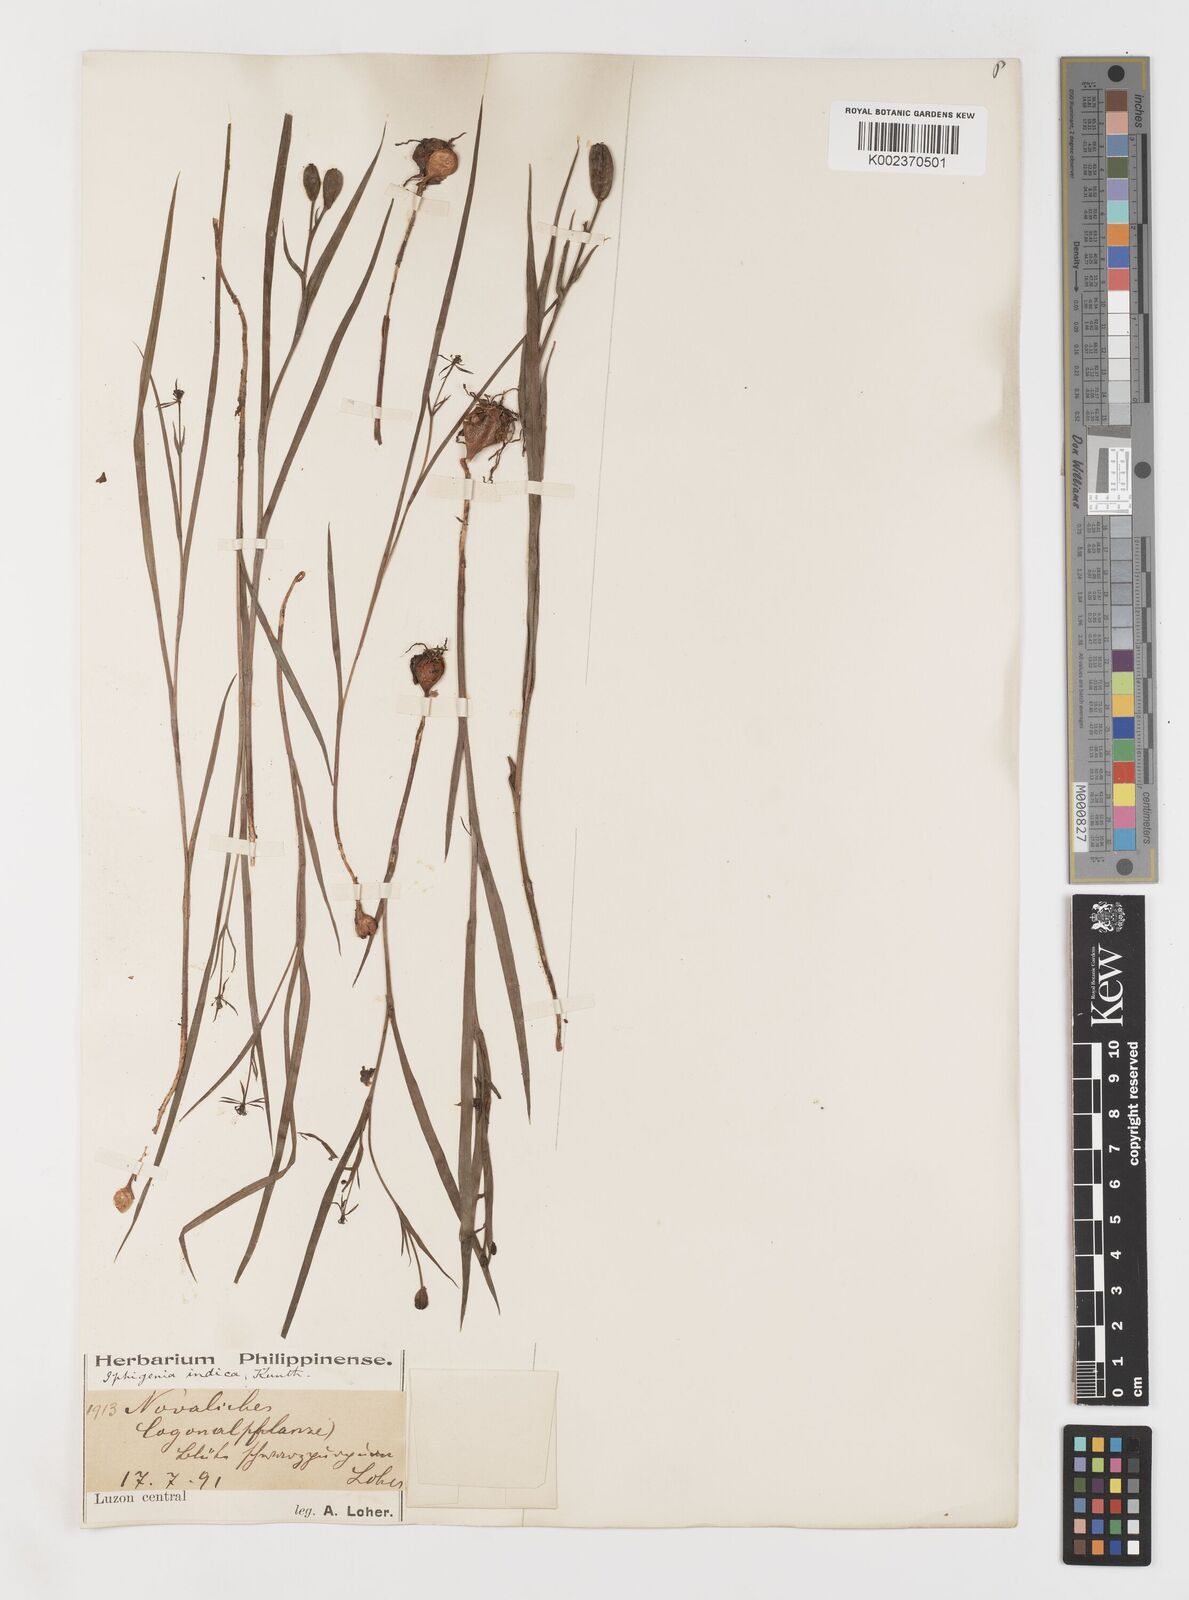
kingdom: Plantae
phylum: Tracheophyta
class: Liliopsida
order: Liliales
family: Colchicaceae
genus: Iphigenia
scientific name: Iphigenia indica
